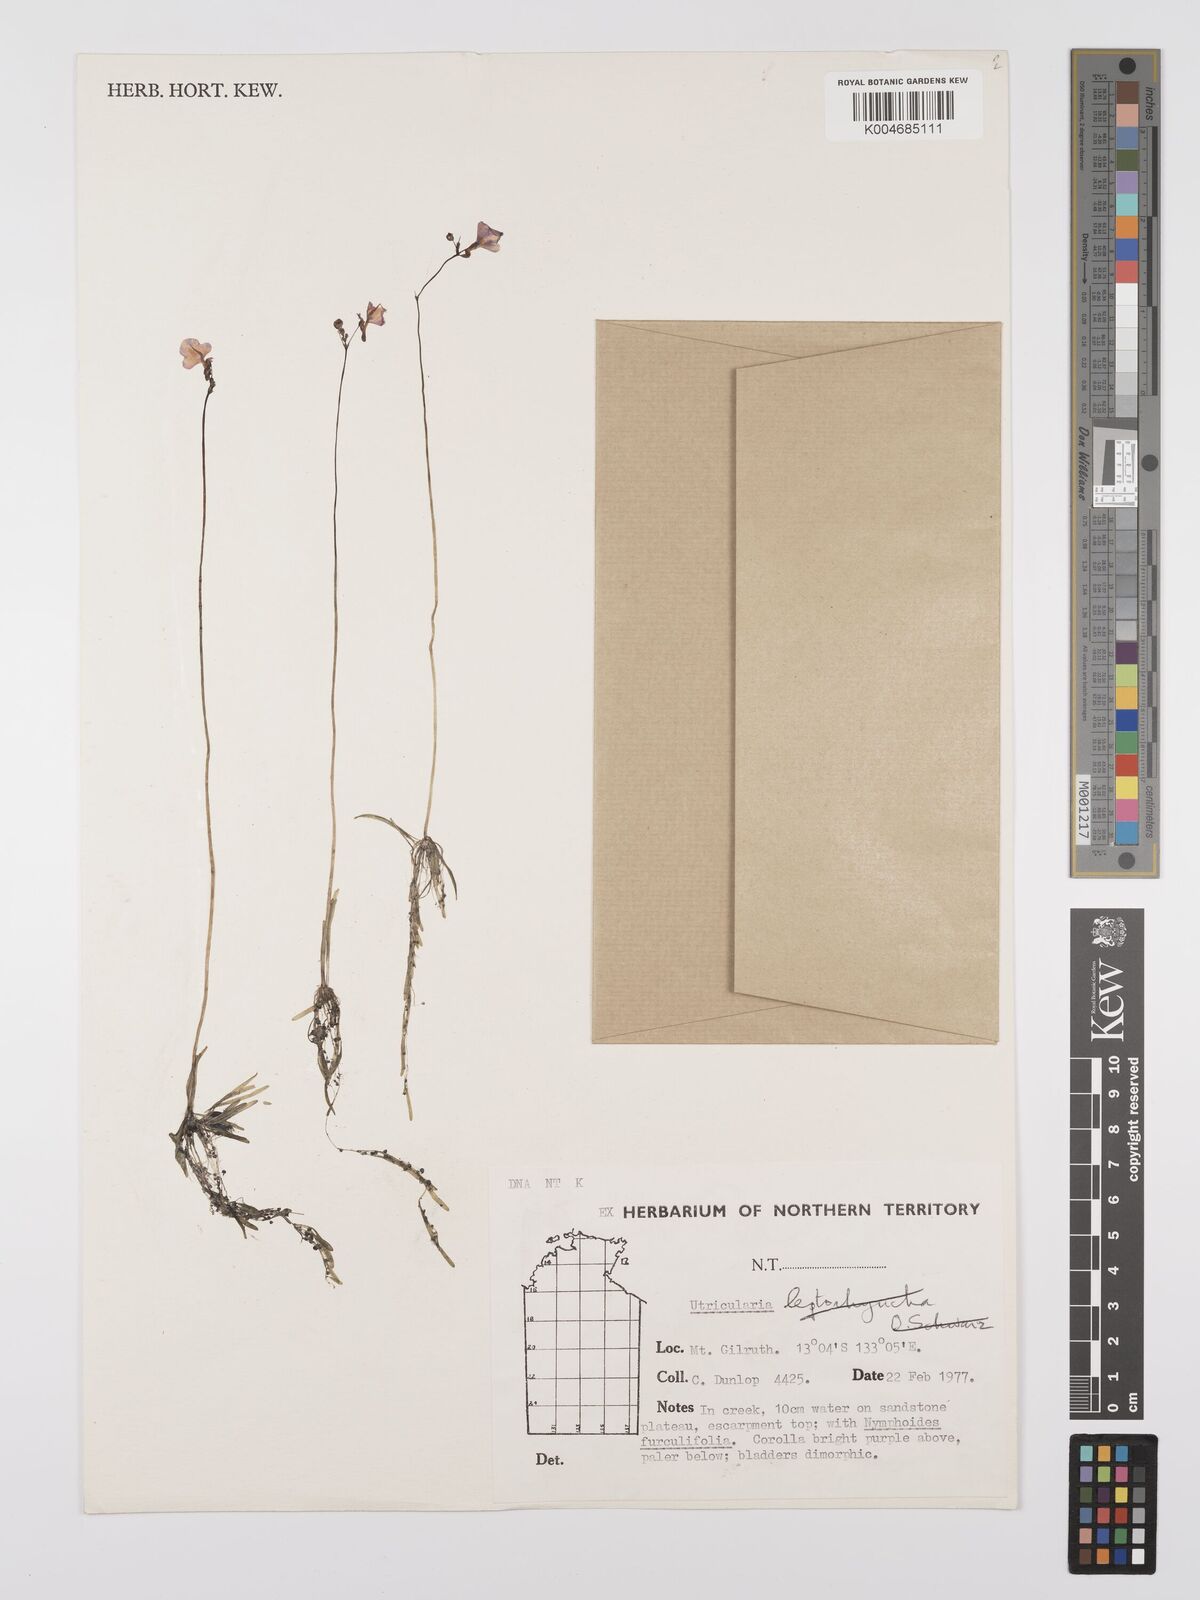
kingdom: Plantae
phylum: Tracheophyta
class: Magnoliopsida
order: Lamiales
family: Lentibulariaceae
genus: Utricularia
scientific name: Utricularia arnhemica
